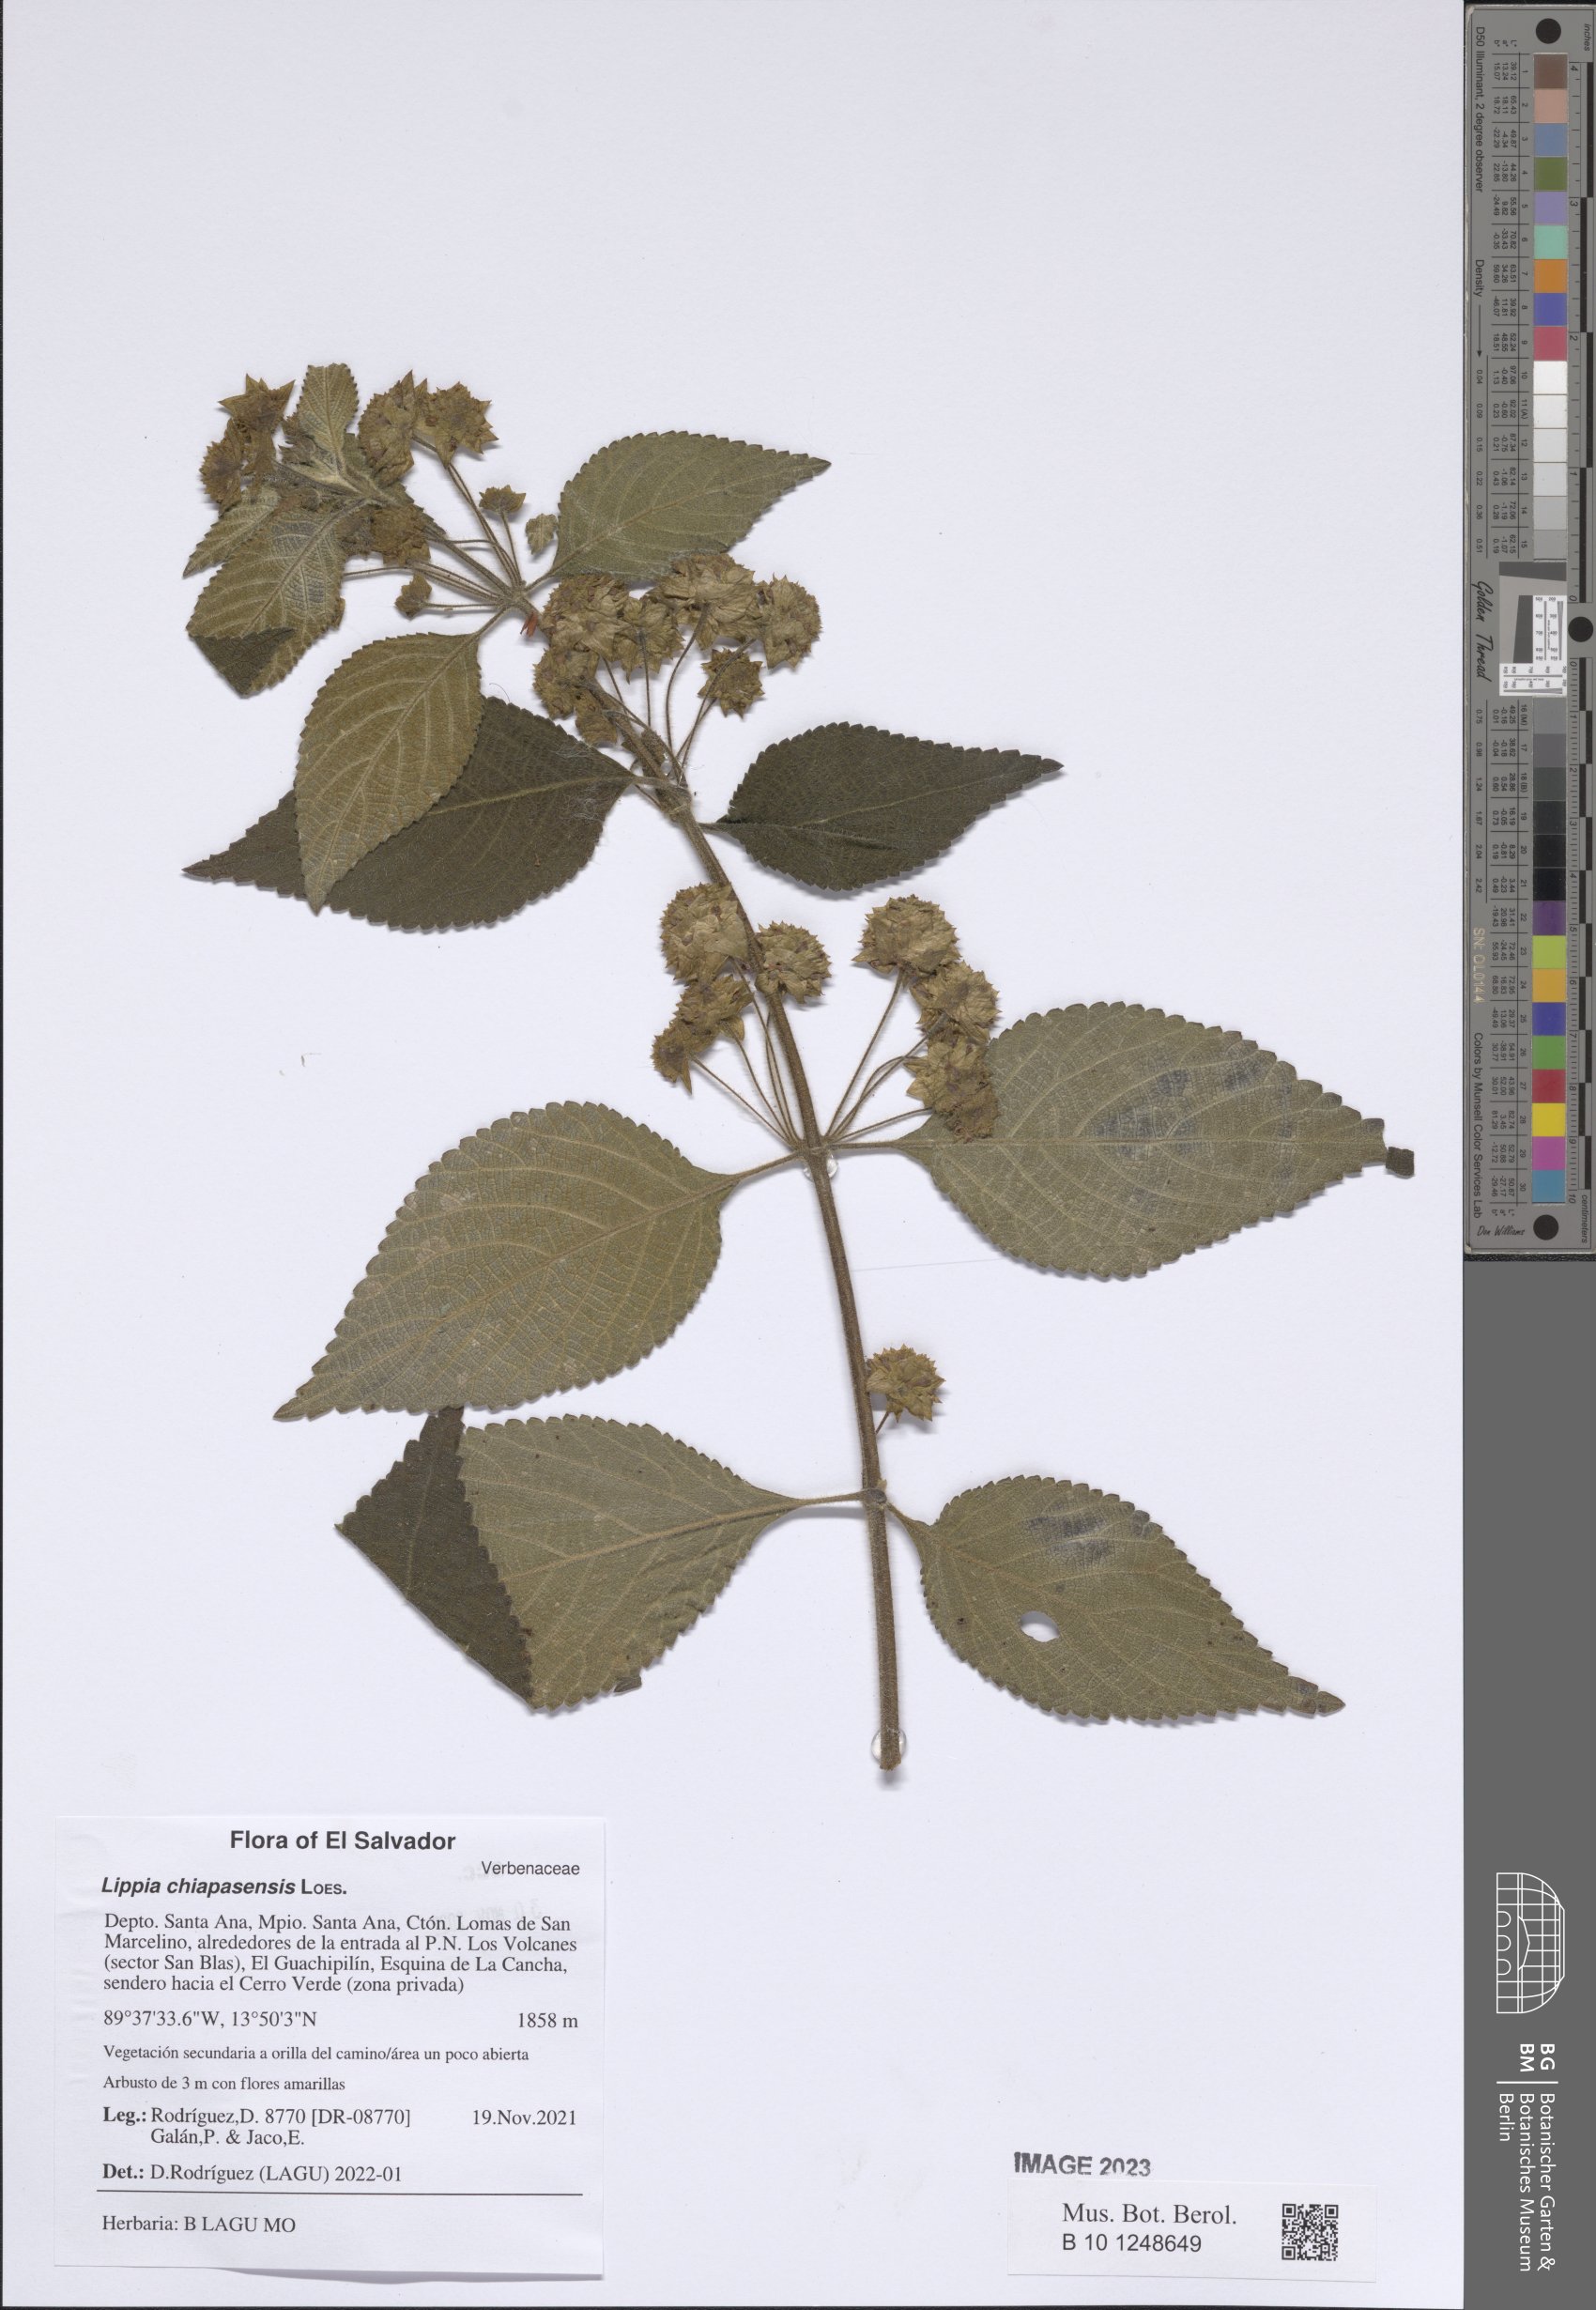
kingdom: Plantae
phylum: Tracheophyta
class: Magnoliopsida
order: Lamiales
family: Verbenaceae
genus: Lippia
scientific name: Lippia chiapasensis
